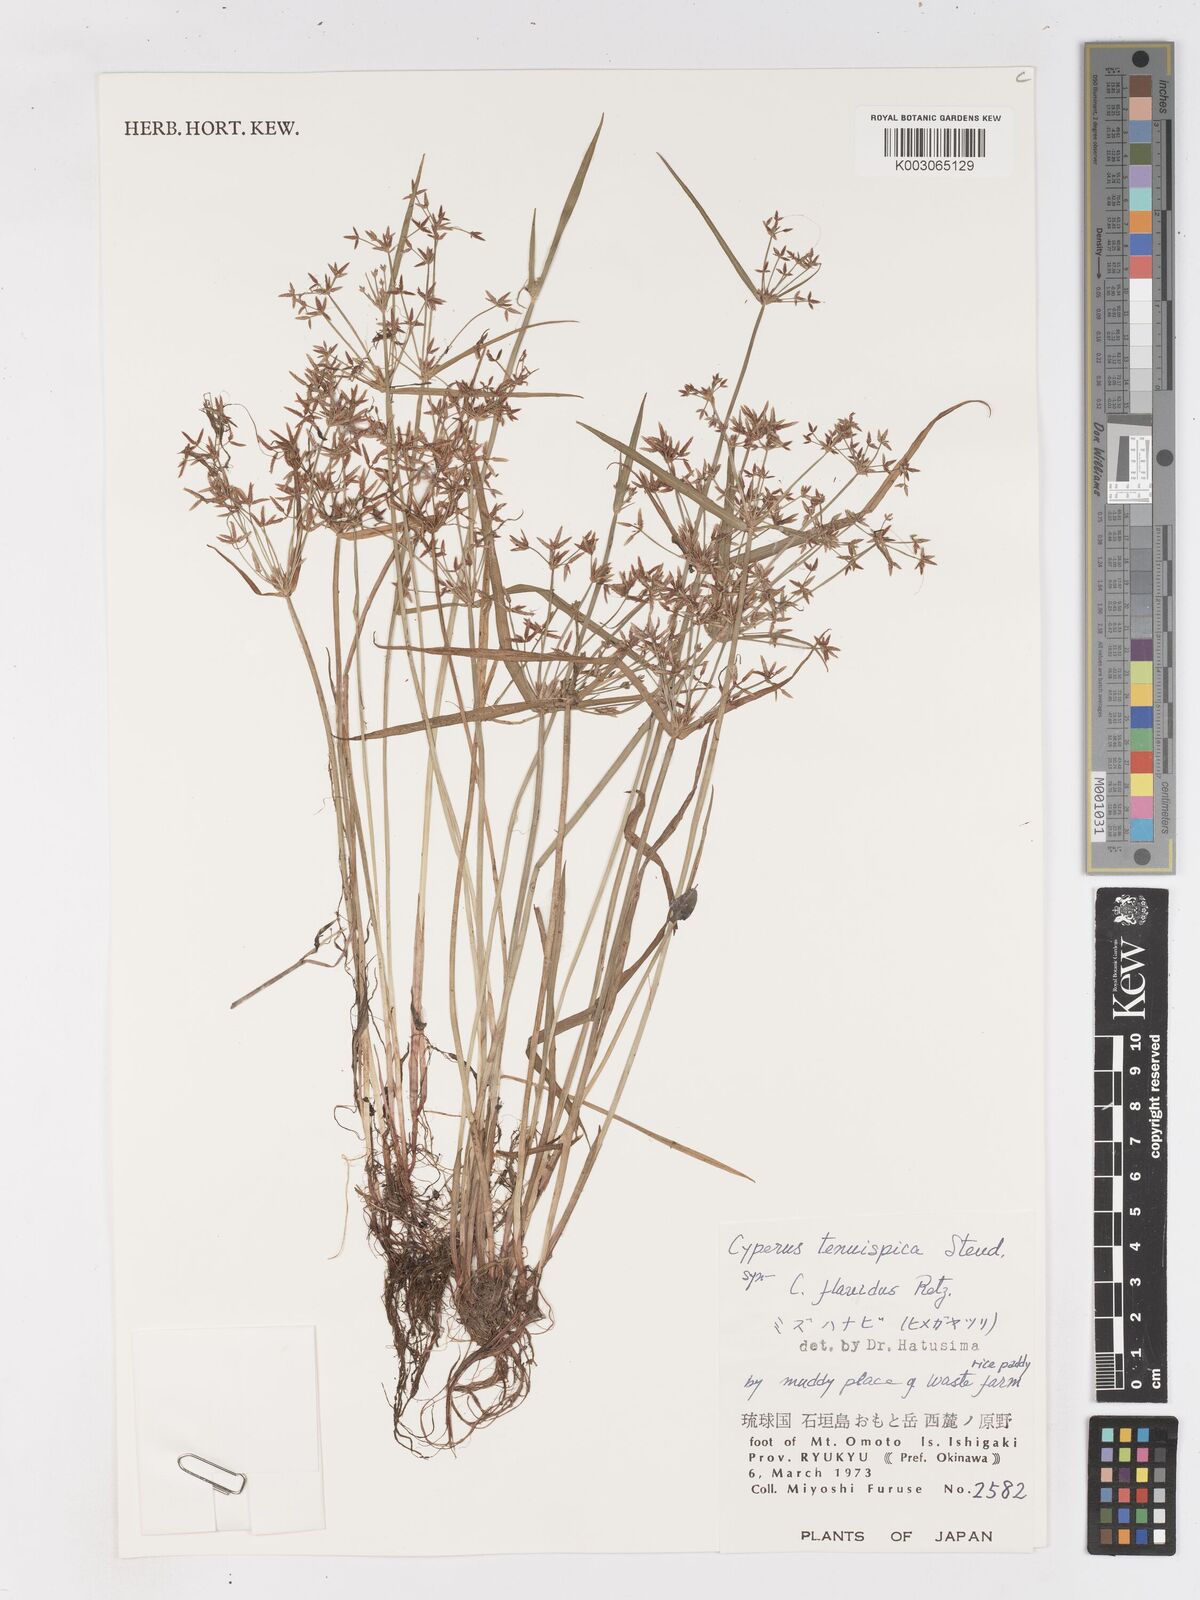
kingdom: Plantae
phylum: Tracheophyta
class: Liliopsida
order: Poales
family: Cyperaceae
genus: Cyperus
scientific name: Cyperus tenuispica
